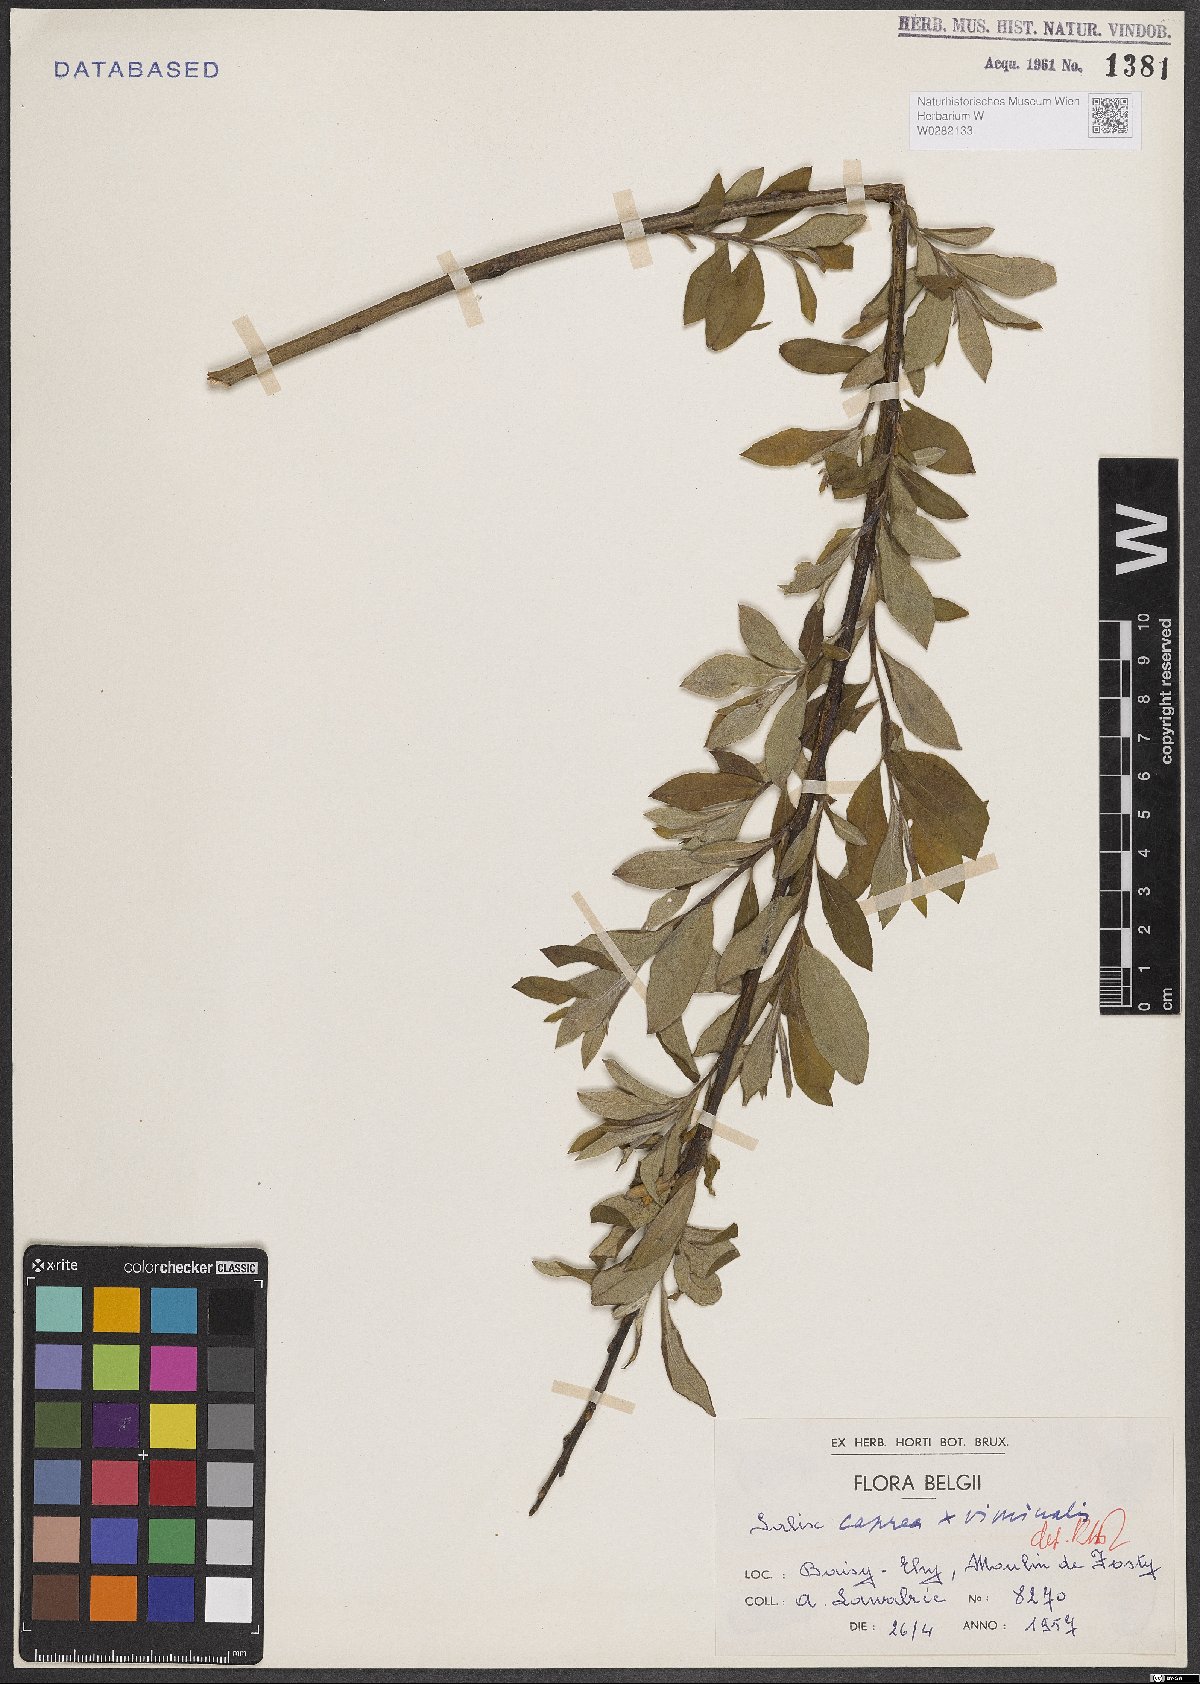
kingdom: Plantae
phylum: Tracheophyta
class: Magnoliopsida
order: Malpighiales
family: Salicaceae
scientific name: Salicaceae
